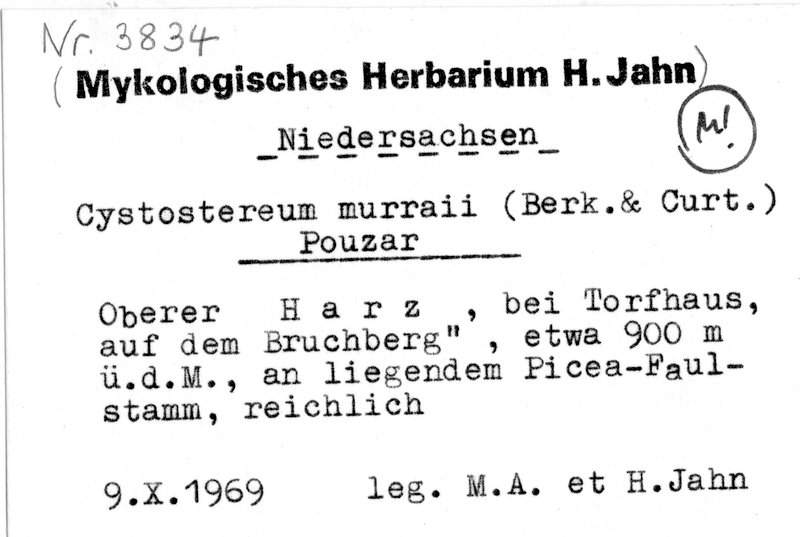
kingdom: Fungi
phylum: Basidiomycota
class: Agaricomycetes
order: Agaricales
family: Cystostereaceae
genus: Cystostereum
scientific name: Cystostereum murrayi
